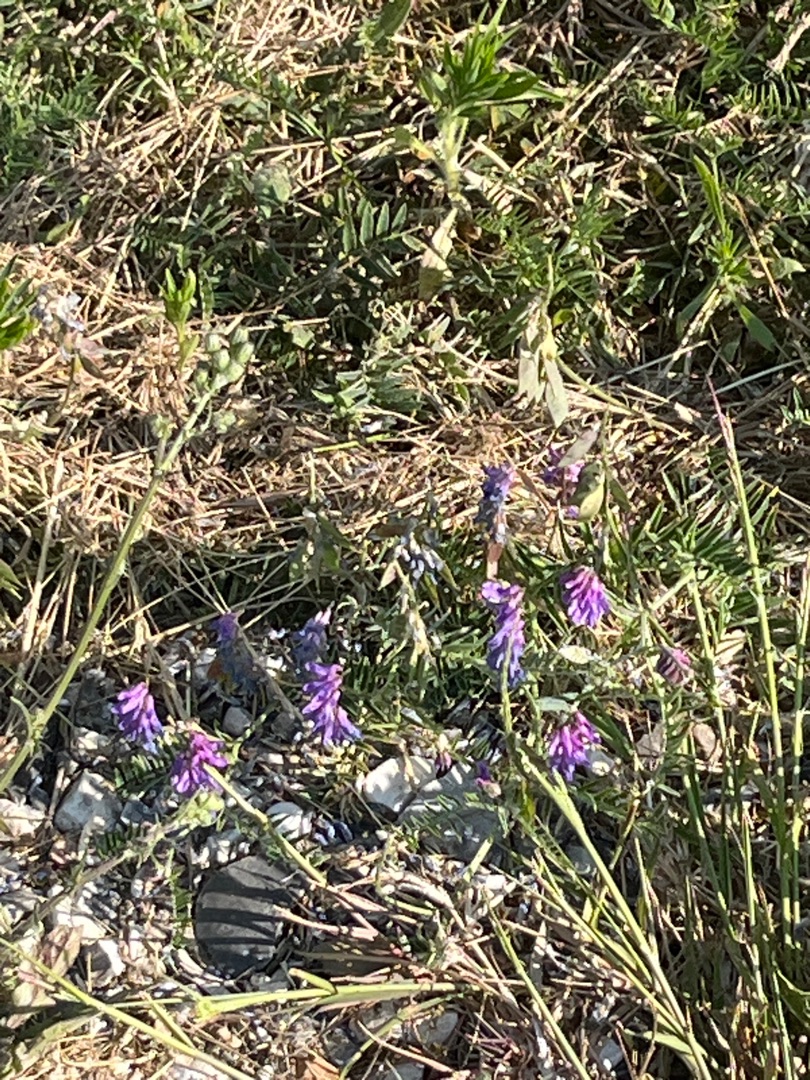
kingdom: Plantae
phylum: Tracheophyta
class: Magnoliopsida
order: Fabales
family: Fabaceae
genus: Vicia
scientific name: Vicia cracca
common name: Muse-vikke
